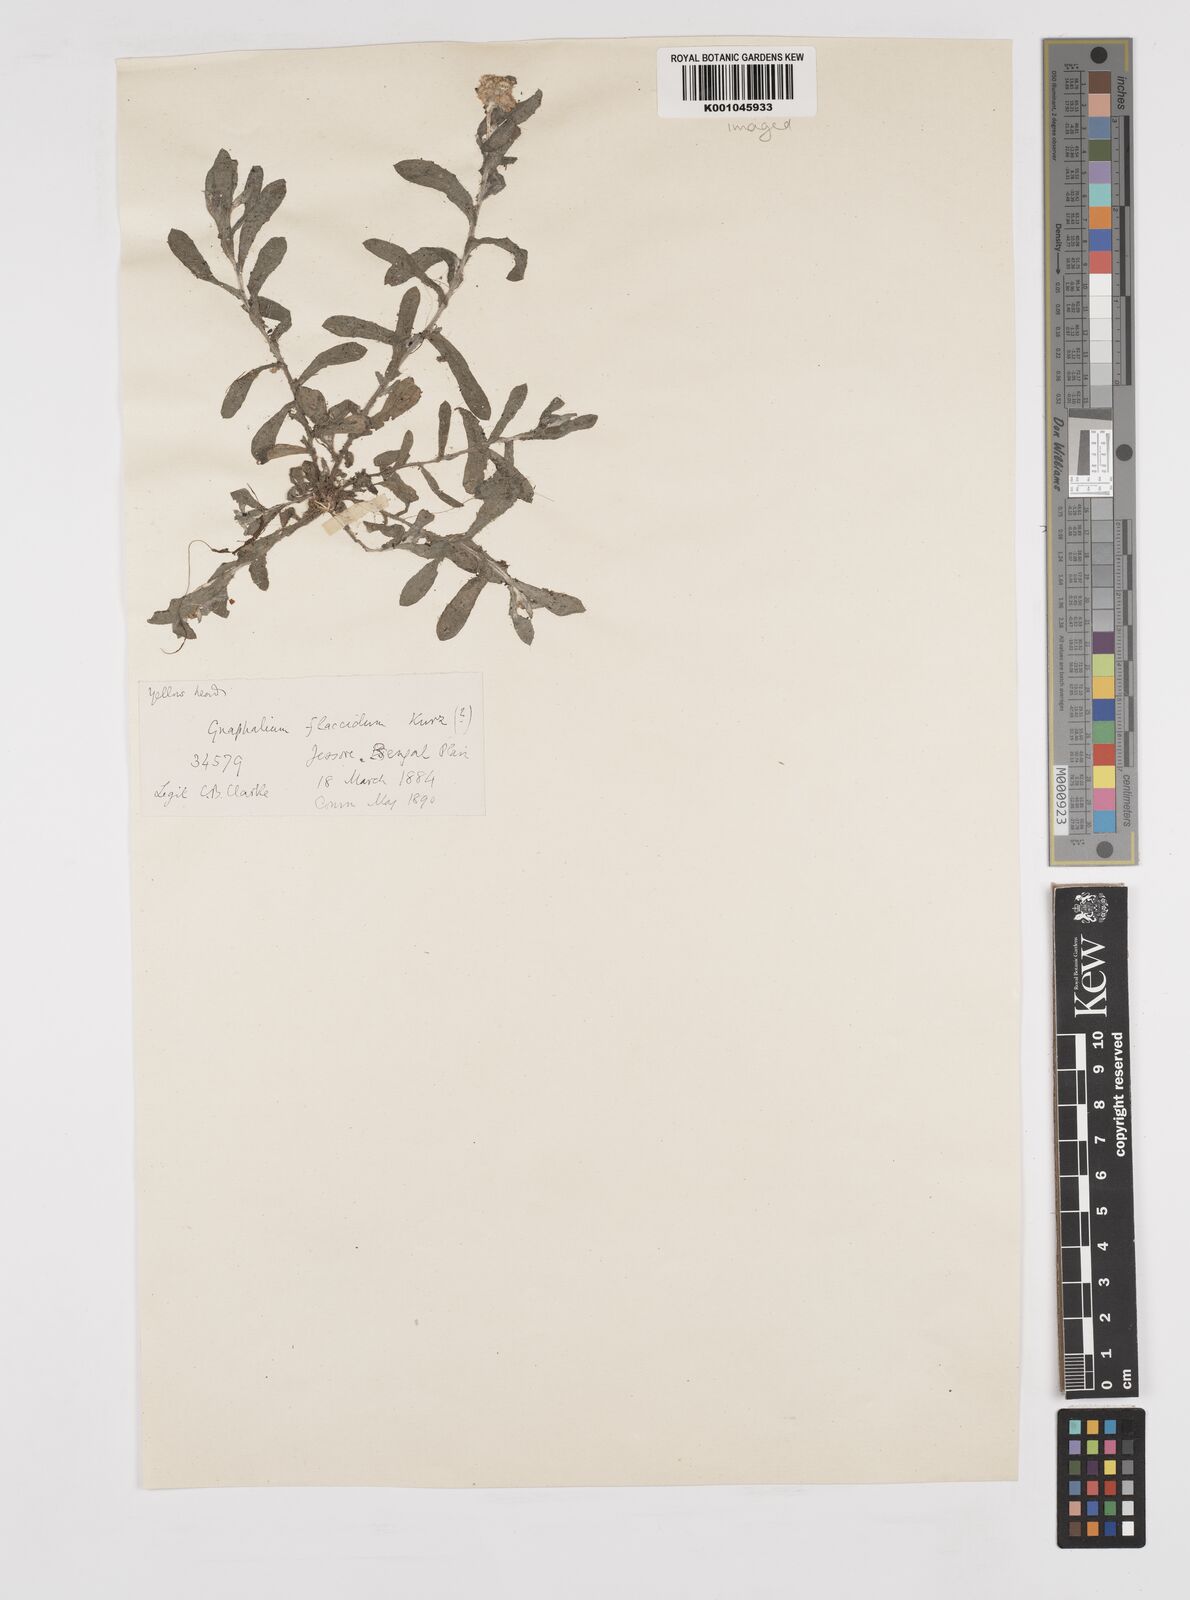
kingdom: Plantae
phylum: Tracheophyta
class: Magnoliopsida
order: Asterales
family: Asteraceae
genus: Gnaphalium
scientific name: Gnaphalium
